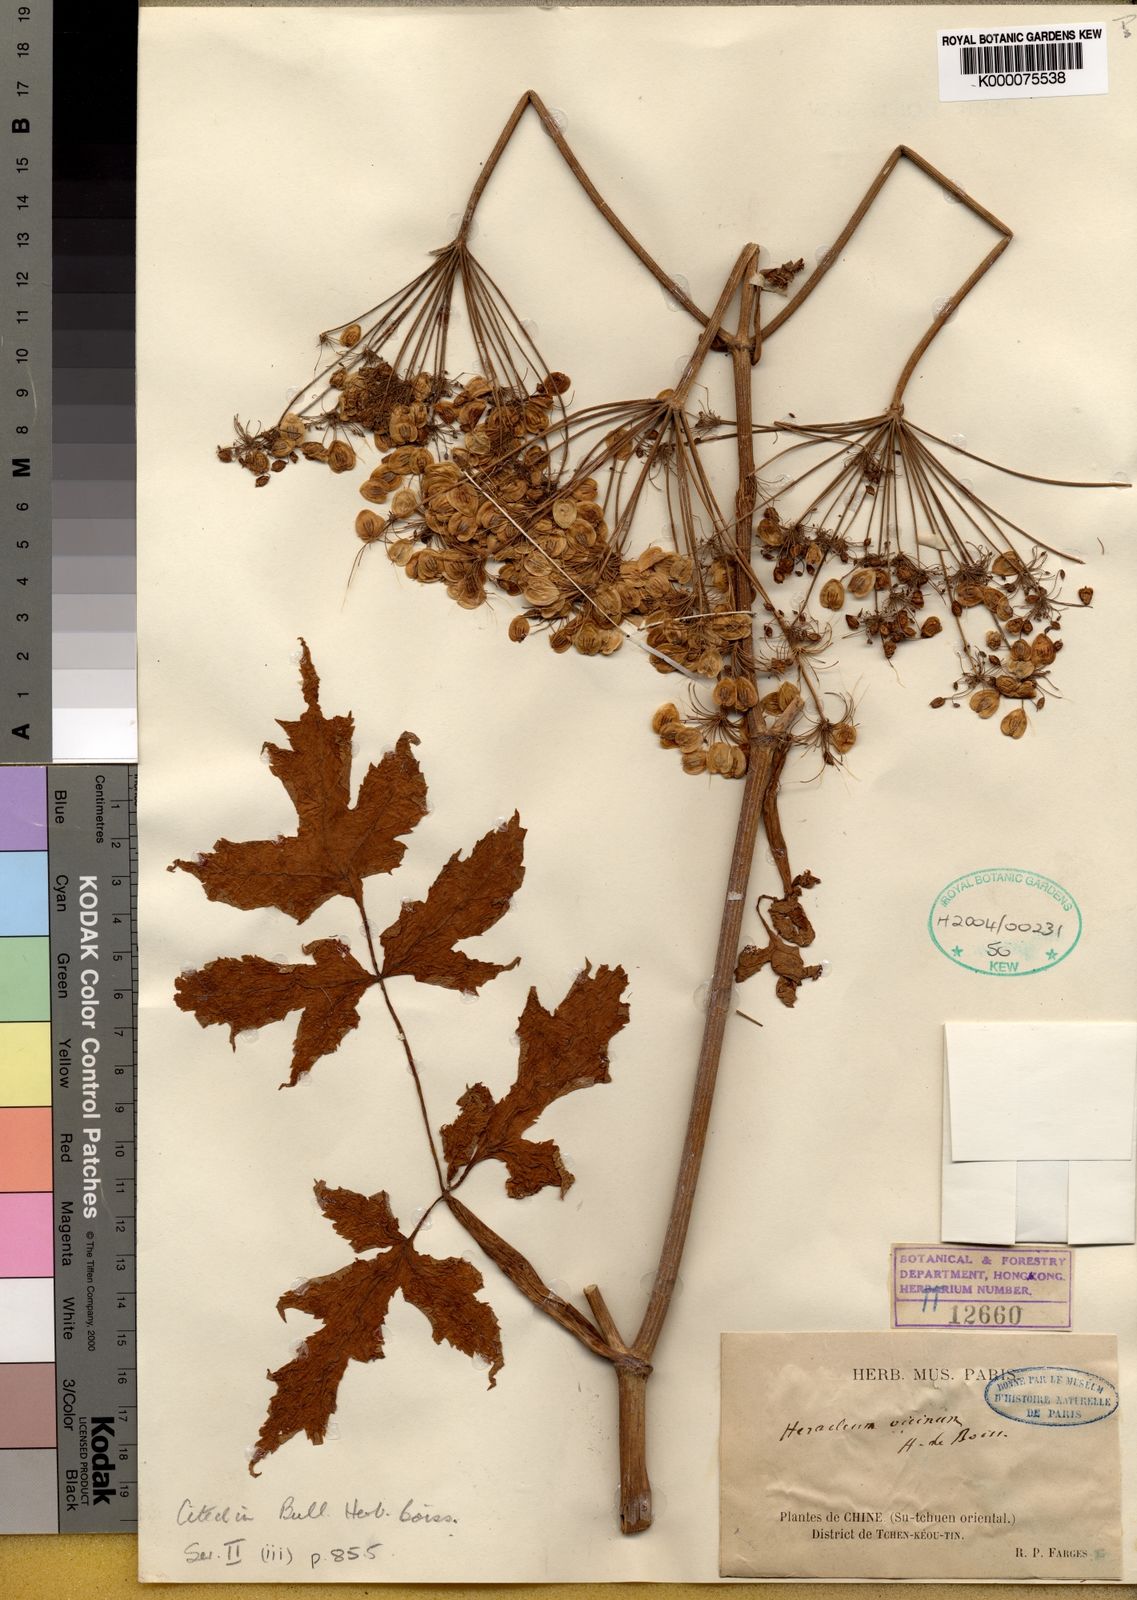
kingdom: Plantae
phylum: Tracheophyta
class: Magnoliopsida
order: Apiales
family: Apiaceae
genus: Heracleum
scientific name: Heracleum vicinum
